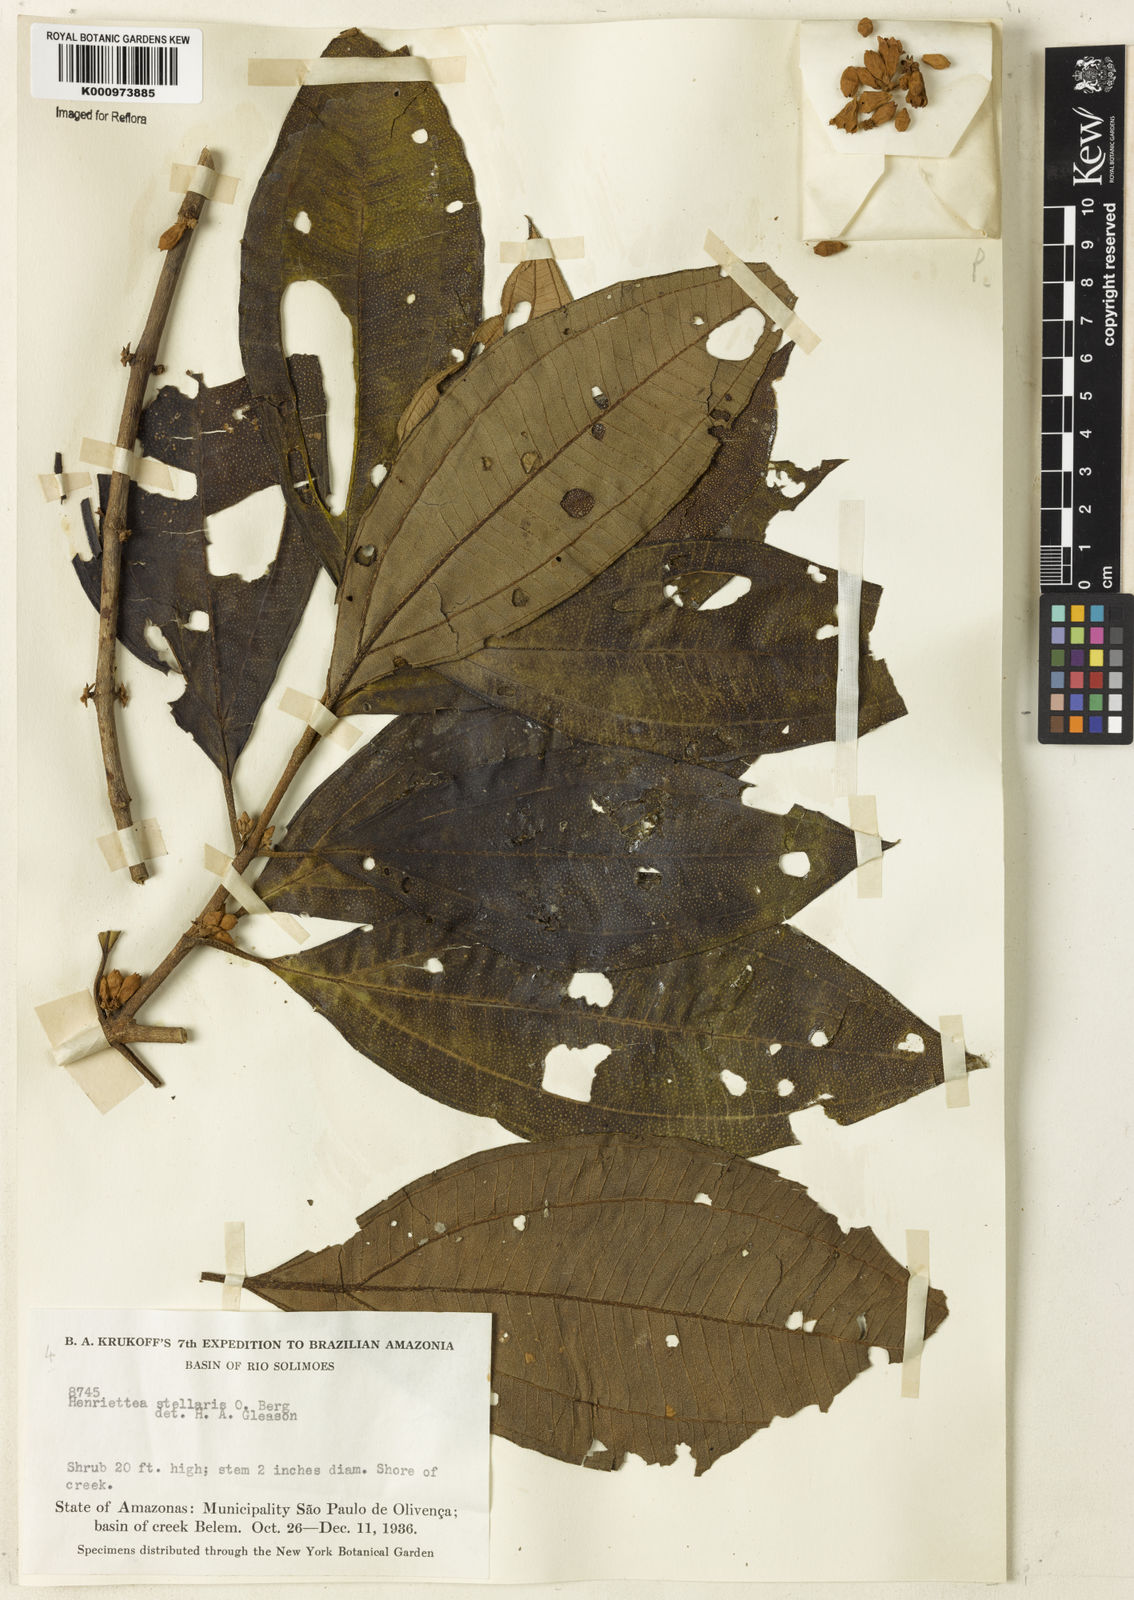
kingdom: Plantae
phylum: Tracheophyta
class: Magnoliopsida
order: Myrtales
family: Melastomataceae
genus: Henriettea
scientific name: Henriettea stellaris
